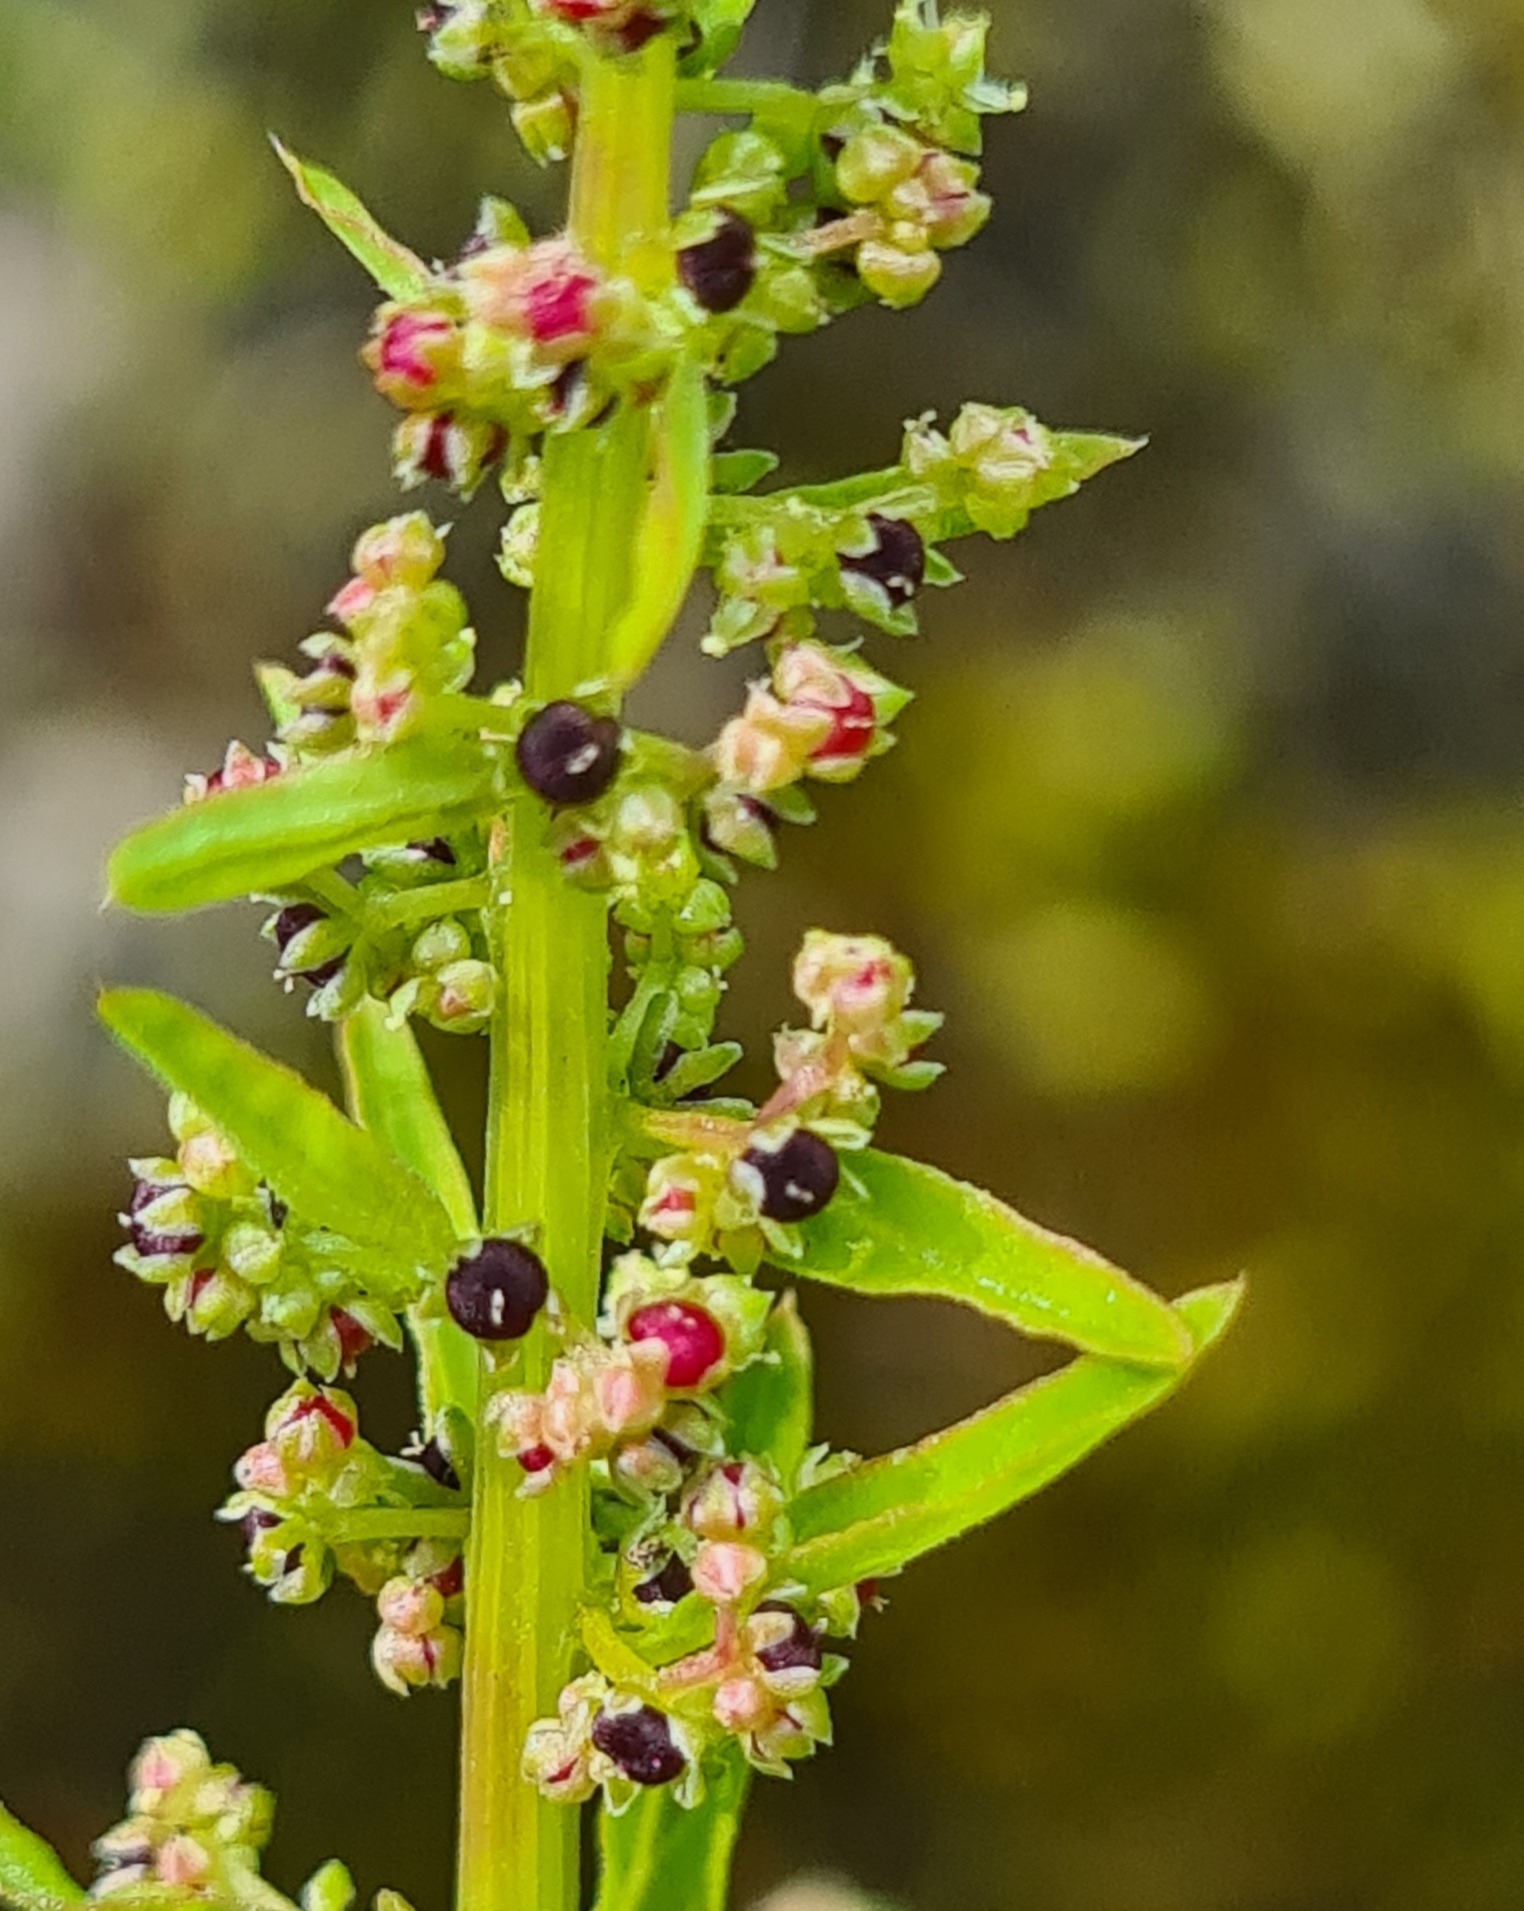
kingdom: Plantae
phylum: Tracheophyta
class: Magnoliopsida
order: Caryophyllales
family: Amaranthaceae
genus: Lipandra
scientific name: Lipandra polysperma
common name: Mangefrøet gåsefod
